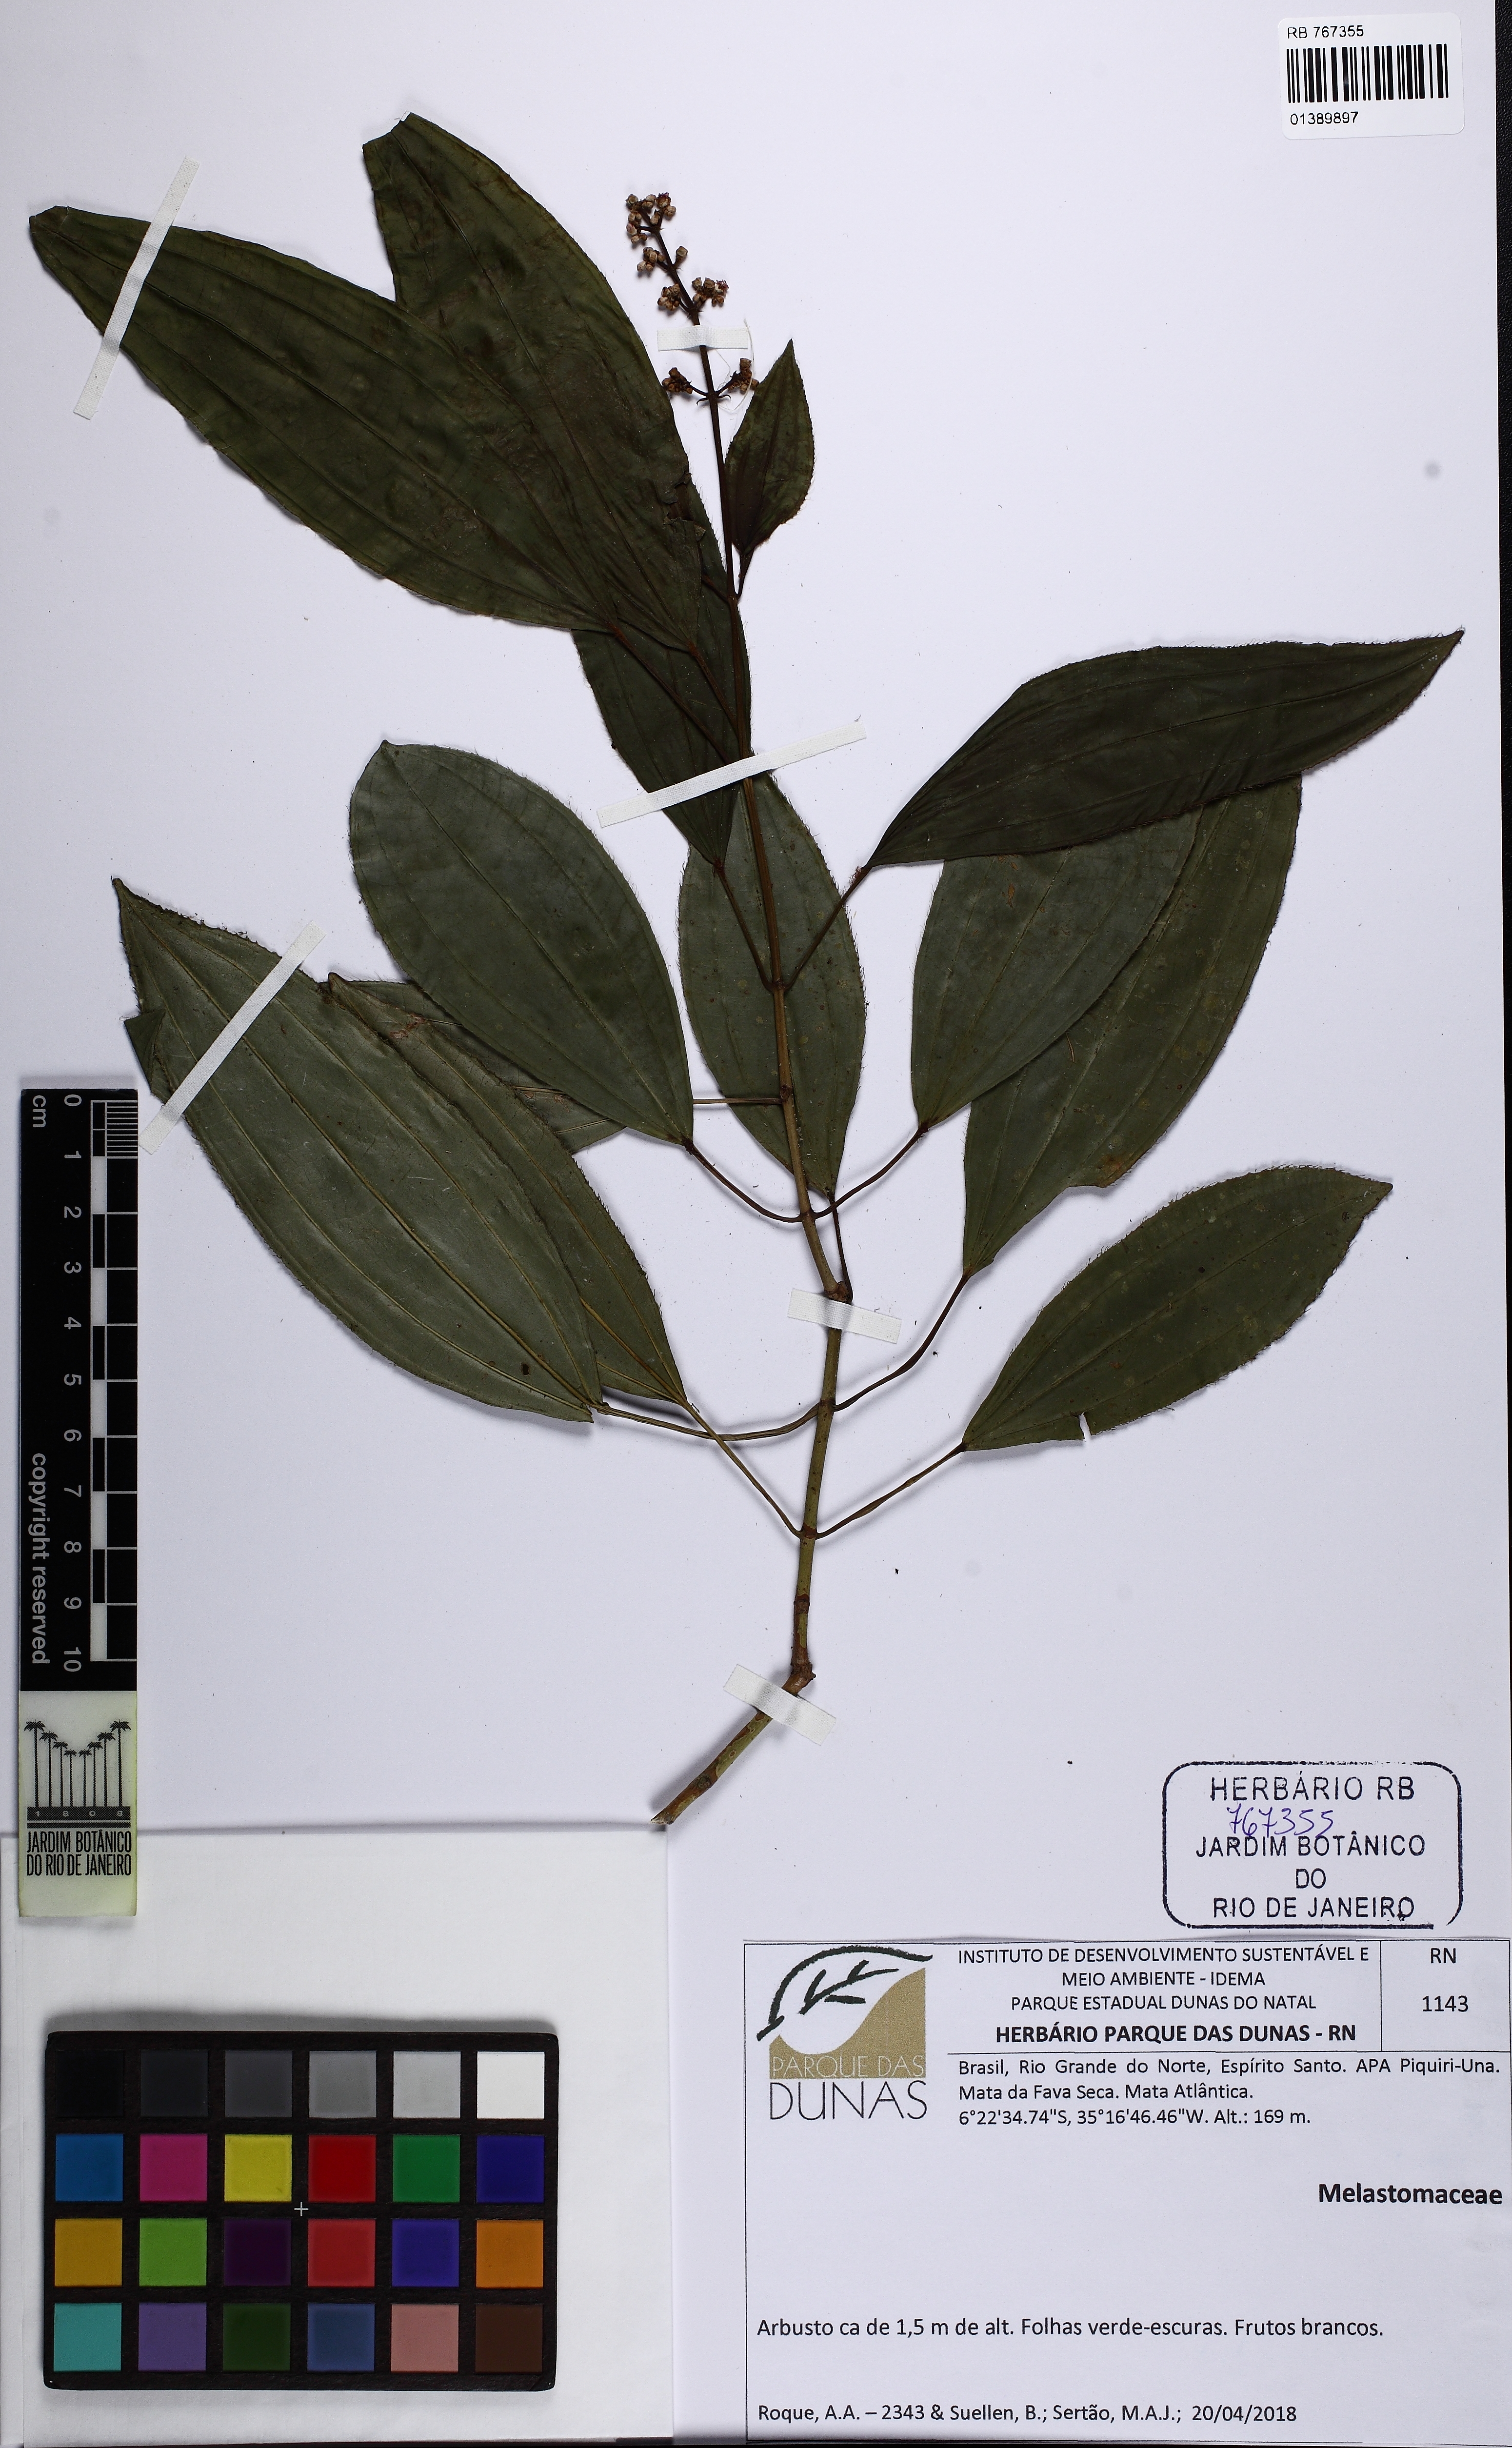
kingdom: Plantae
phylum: Tracheophyta
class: Magnoliopsida
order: Myrtales
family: Melastomataceae
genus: Miconia
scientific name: Miconia ciliata
